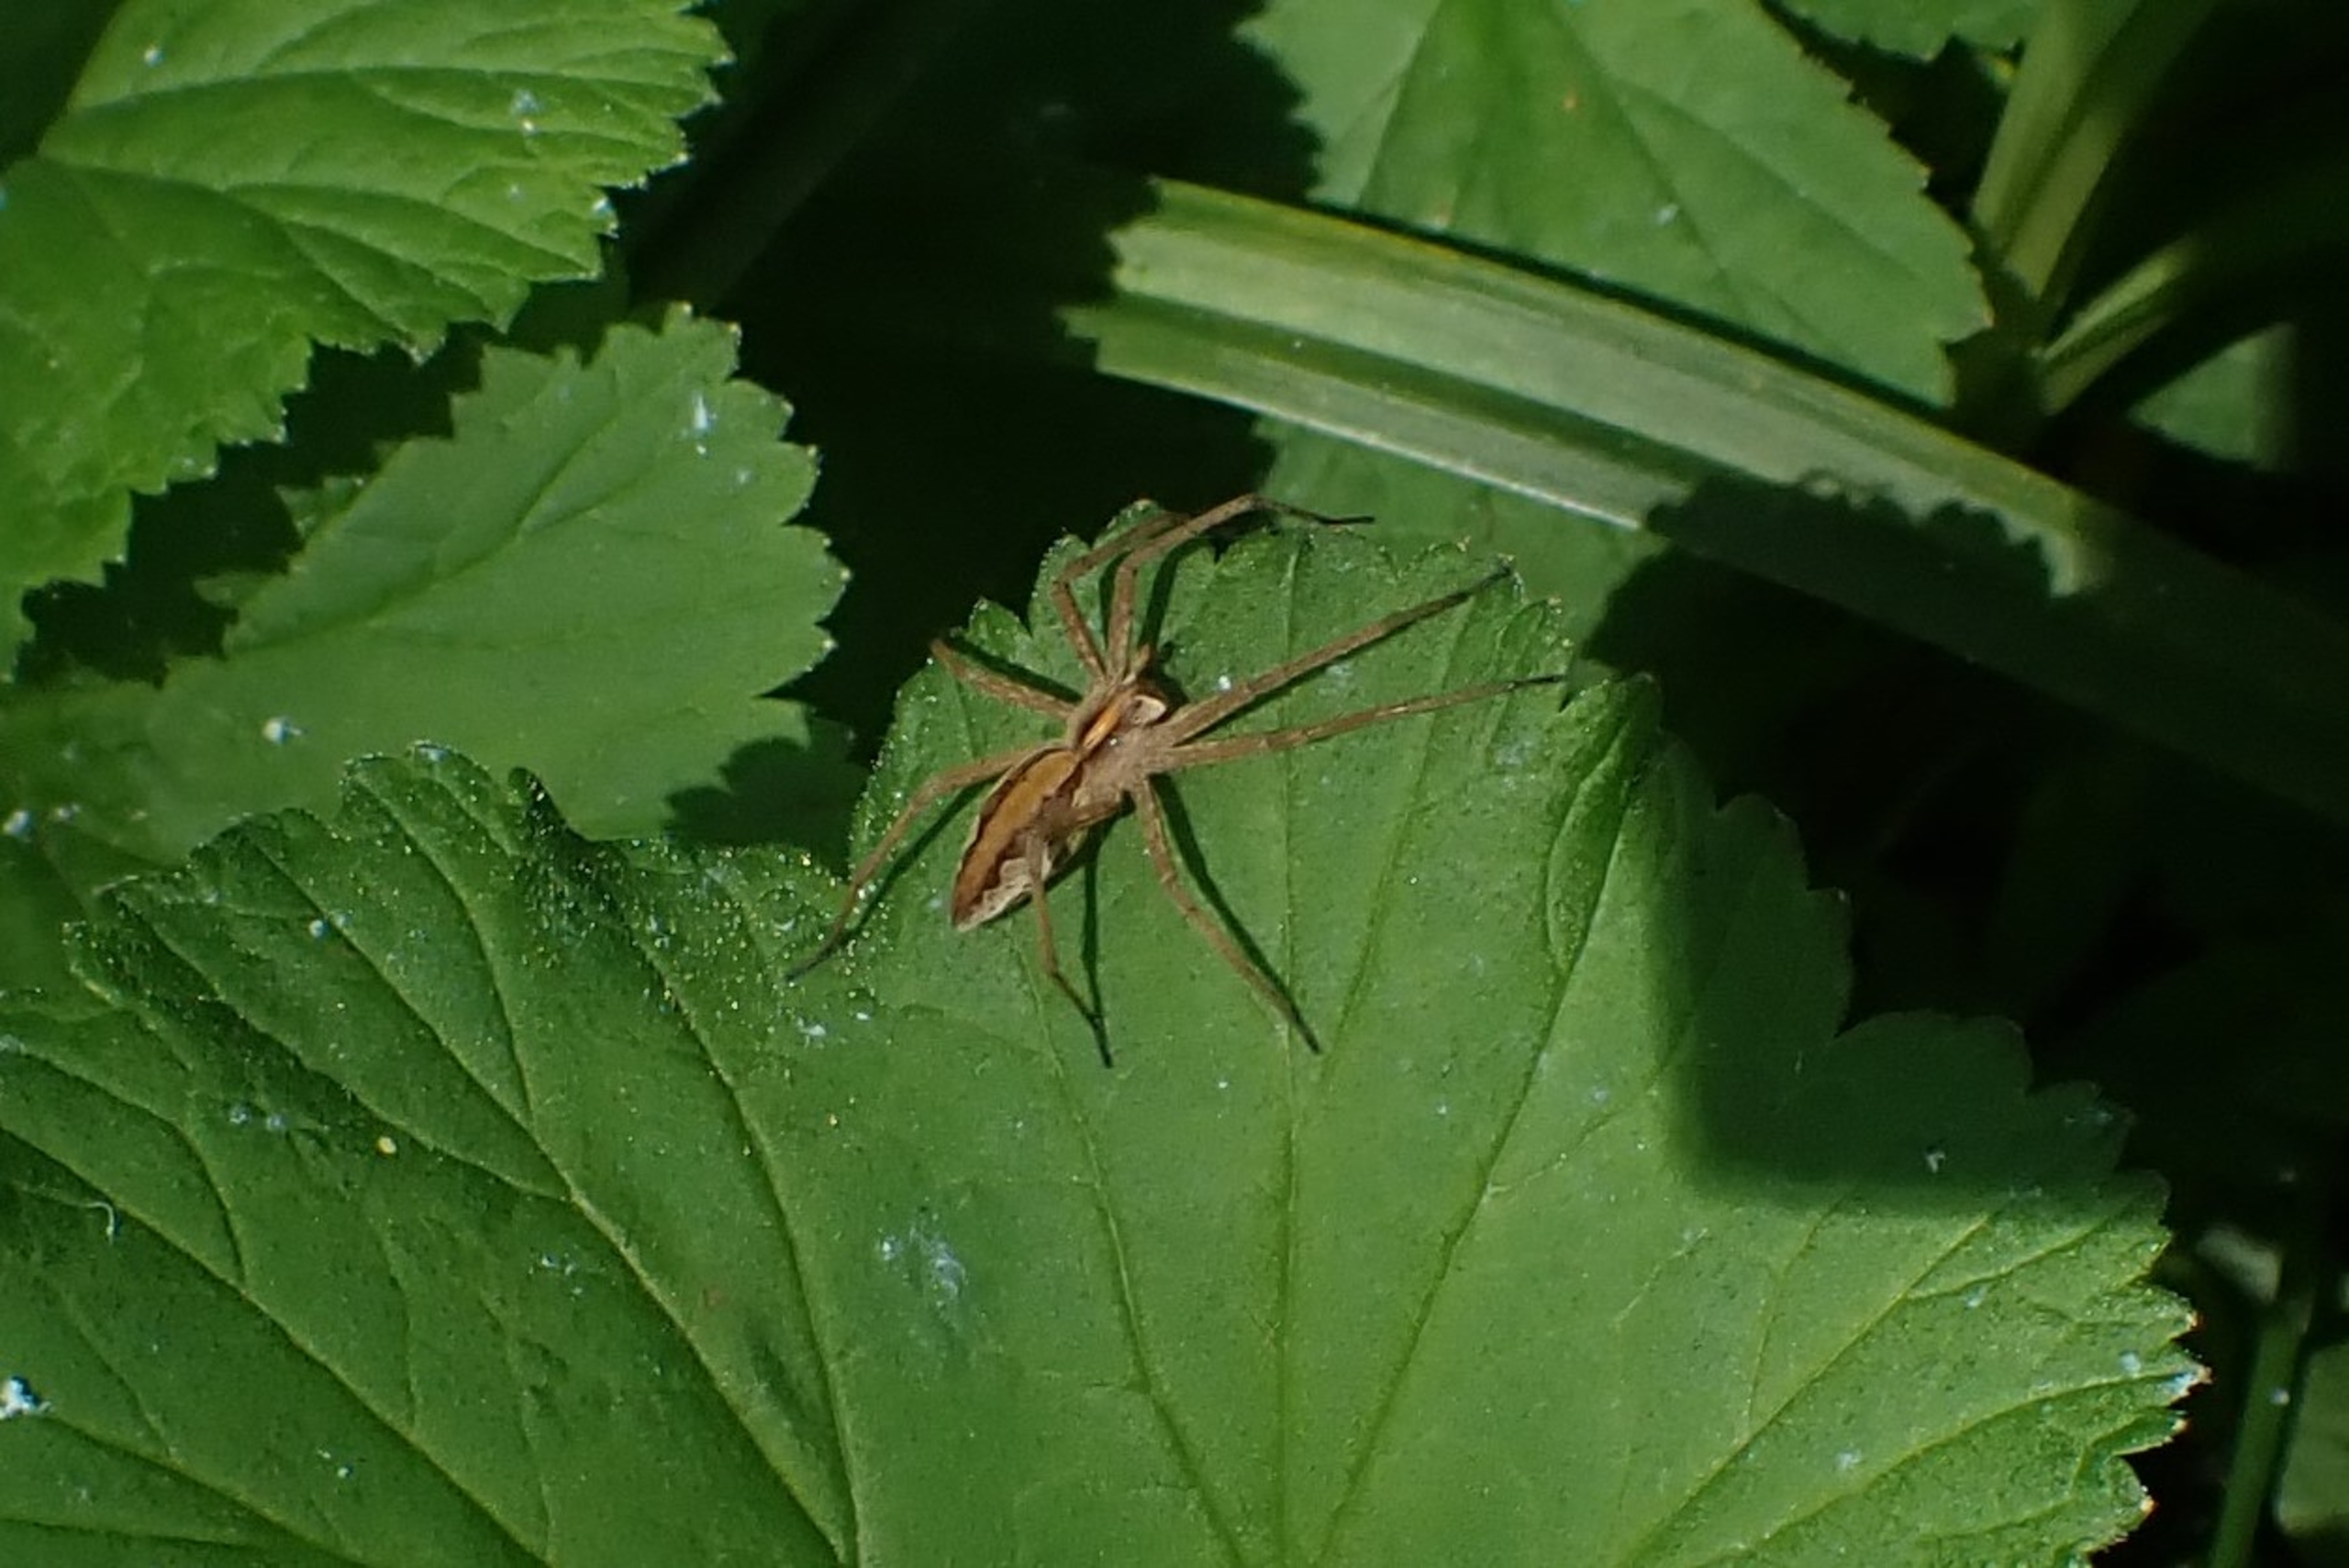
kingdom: Animalia
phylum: Arthropoda
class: Arachnida
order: Araneae
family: Pisauridae
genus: Pisaura
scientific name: Pisaura mirabilis
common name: Almindelig rovedderkop
